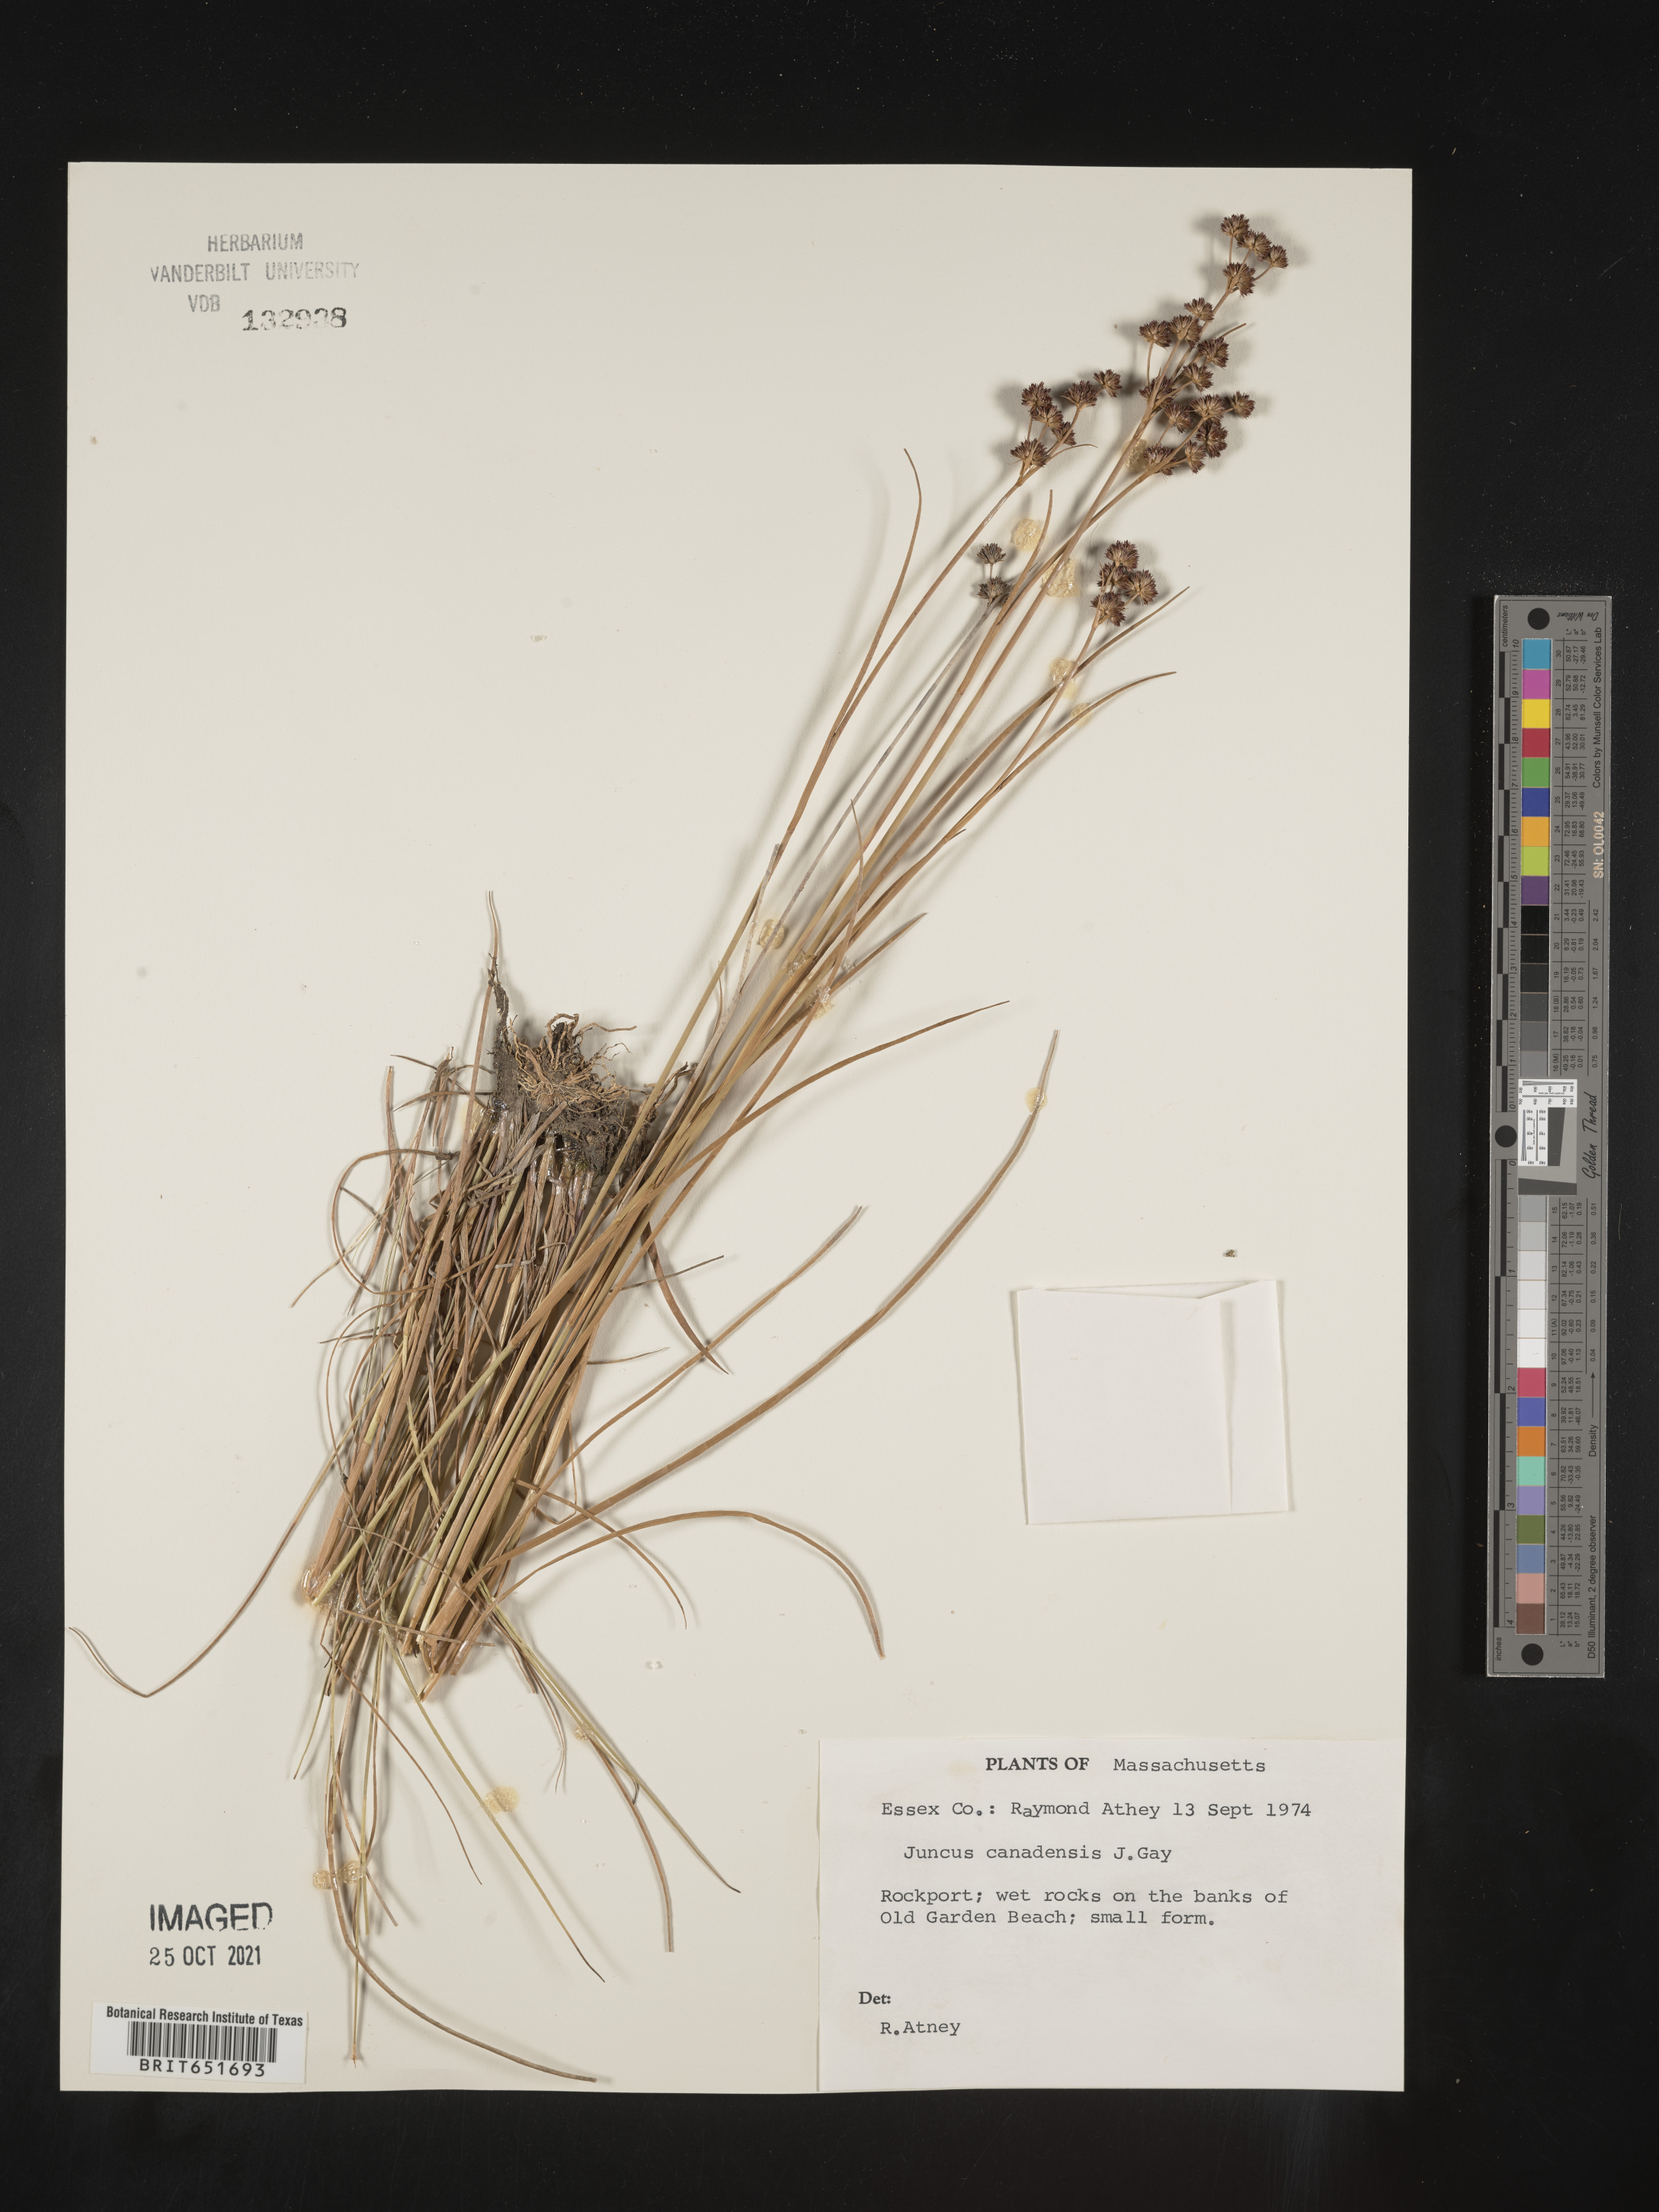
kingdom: Plantae
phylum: Tracheophyta
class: Liliopsida
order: Poales
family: Juncaceae
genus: Juncus
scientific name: Juncus canadensis
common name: Canada rush
